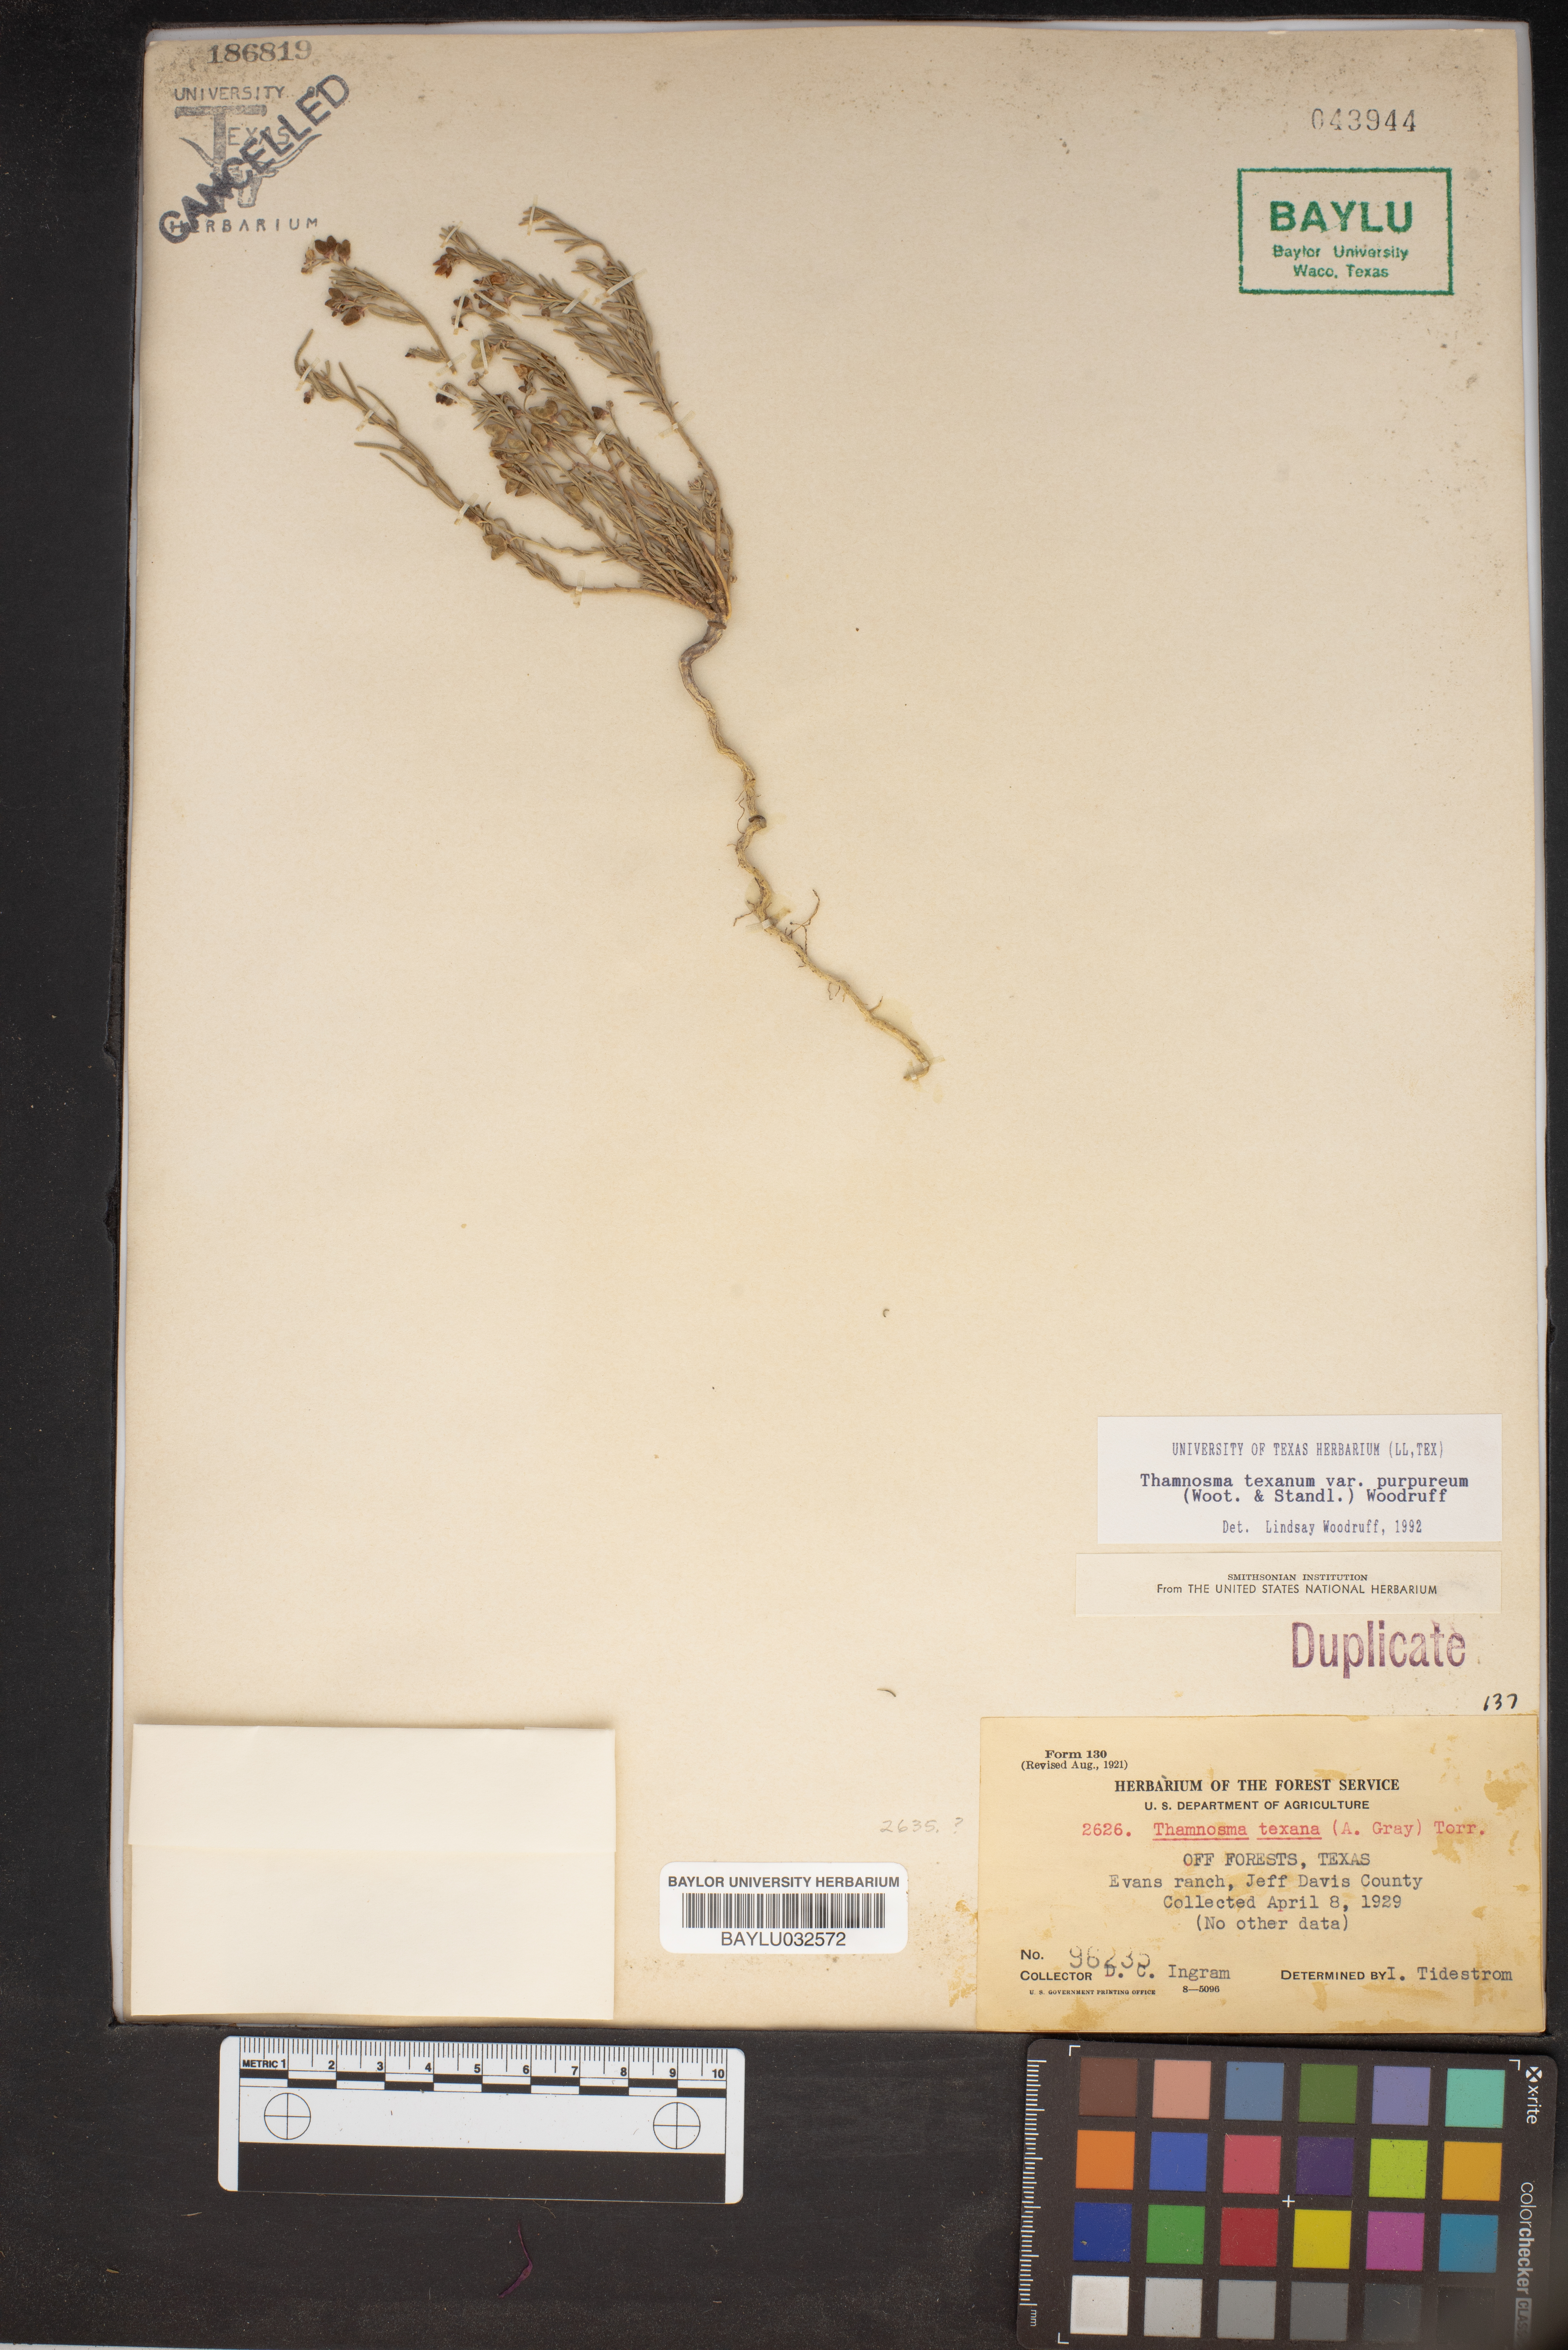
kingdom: Plantae
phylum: Tracheophyta
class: Magnoliopsida
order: Sapindales
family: Rutaceae
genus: Thamnosma
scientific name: Thamnosma texana
